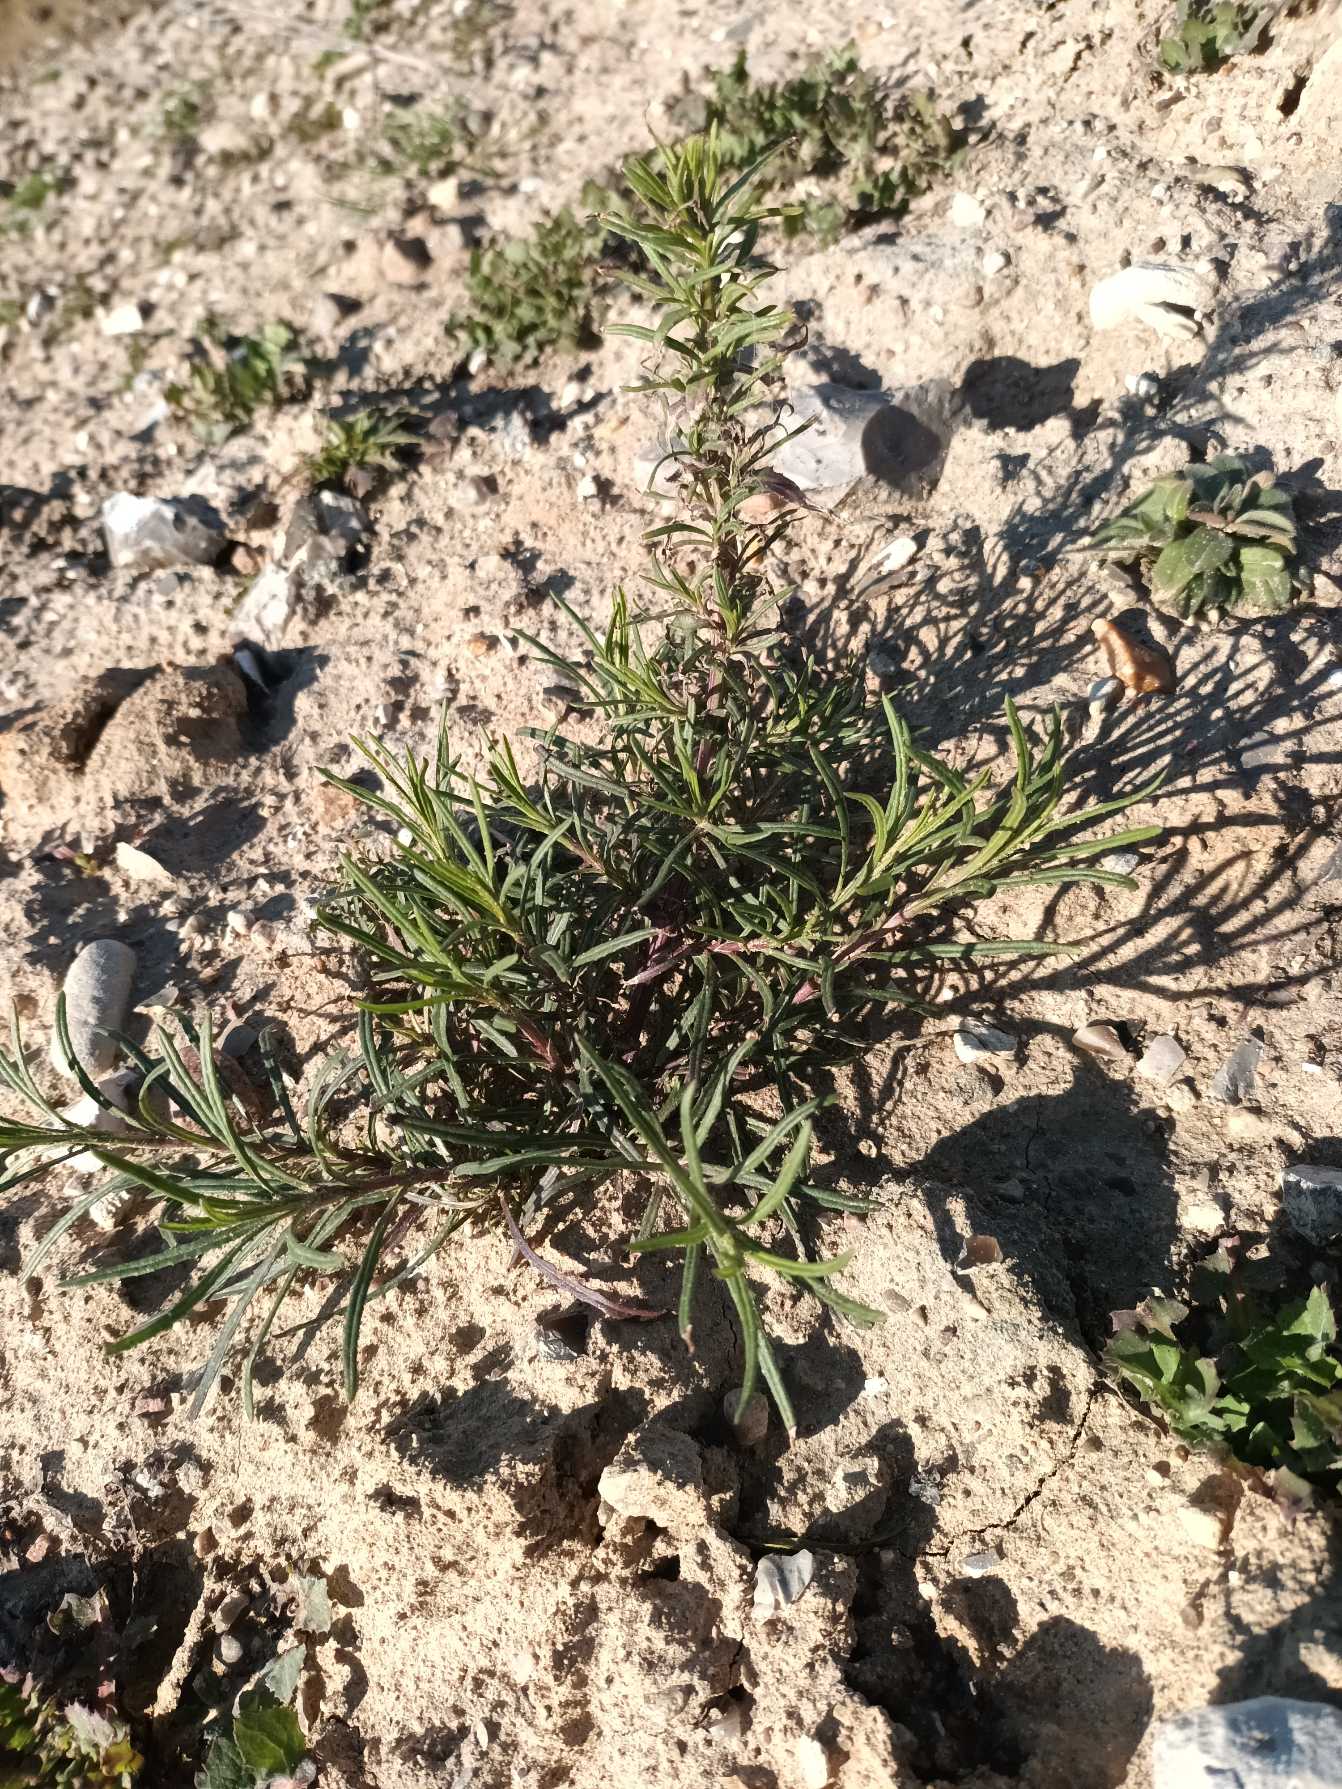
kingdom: Plantae
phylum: Tracheophyta
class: Magnoliopsida
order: Asterales
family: Asteraceae
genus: Senecio
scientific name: Senecio inaequidens
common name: Smalbladet brandbæger
